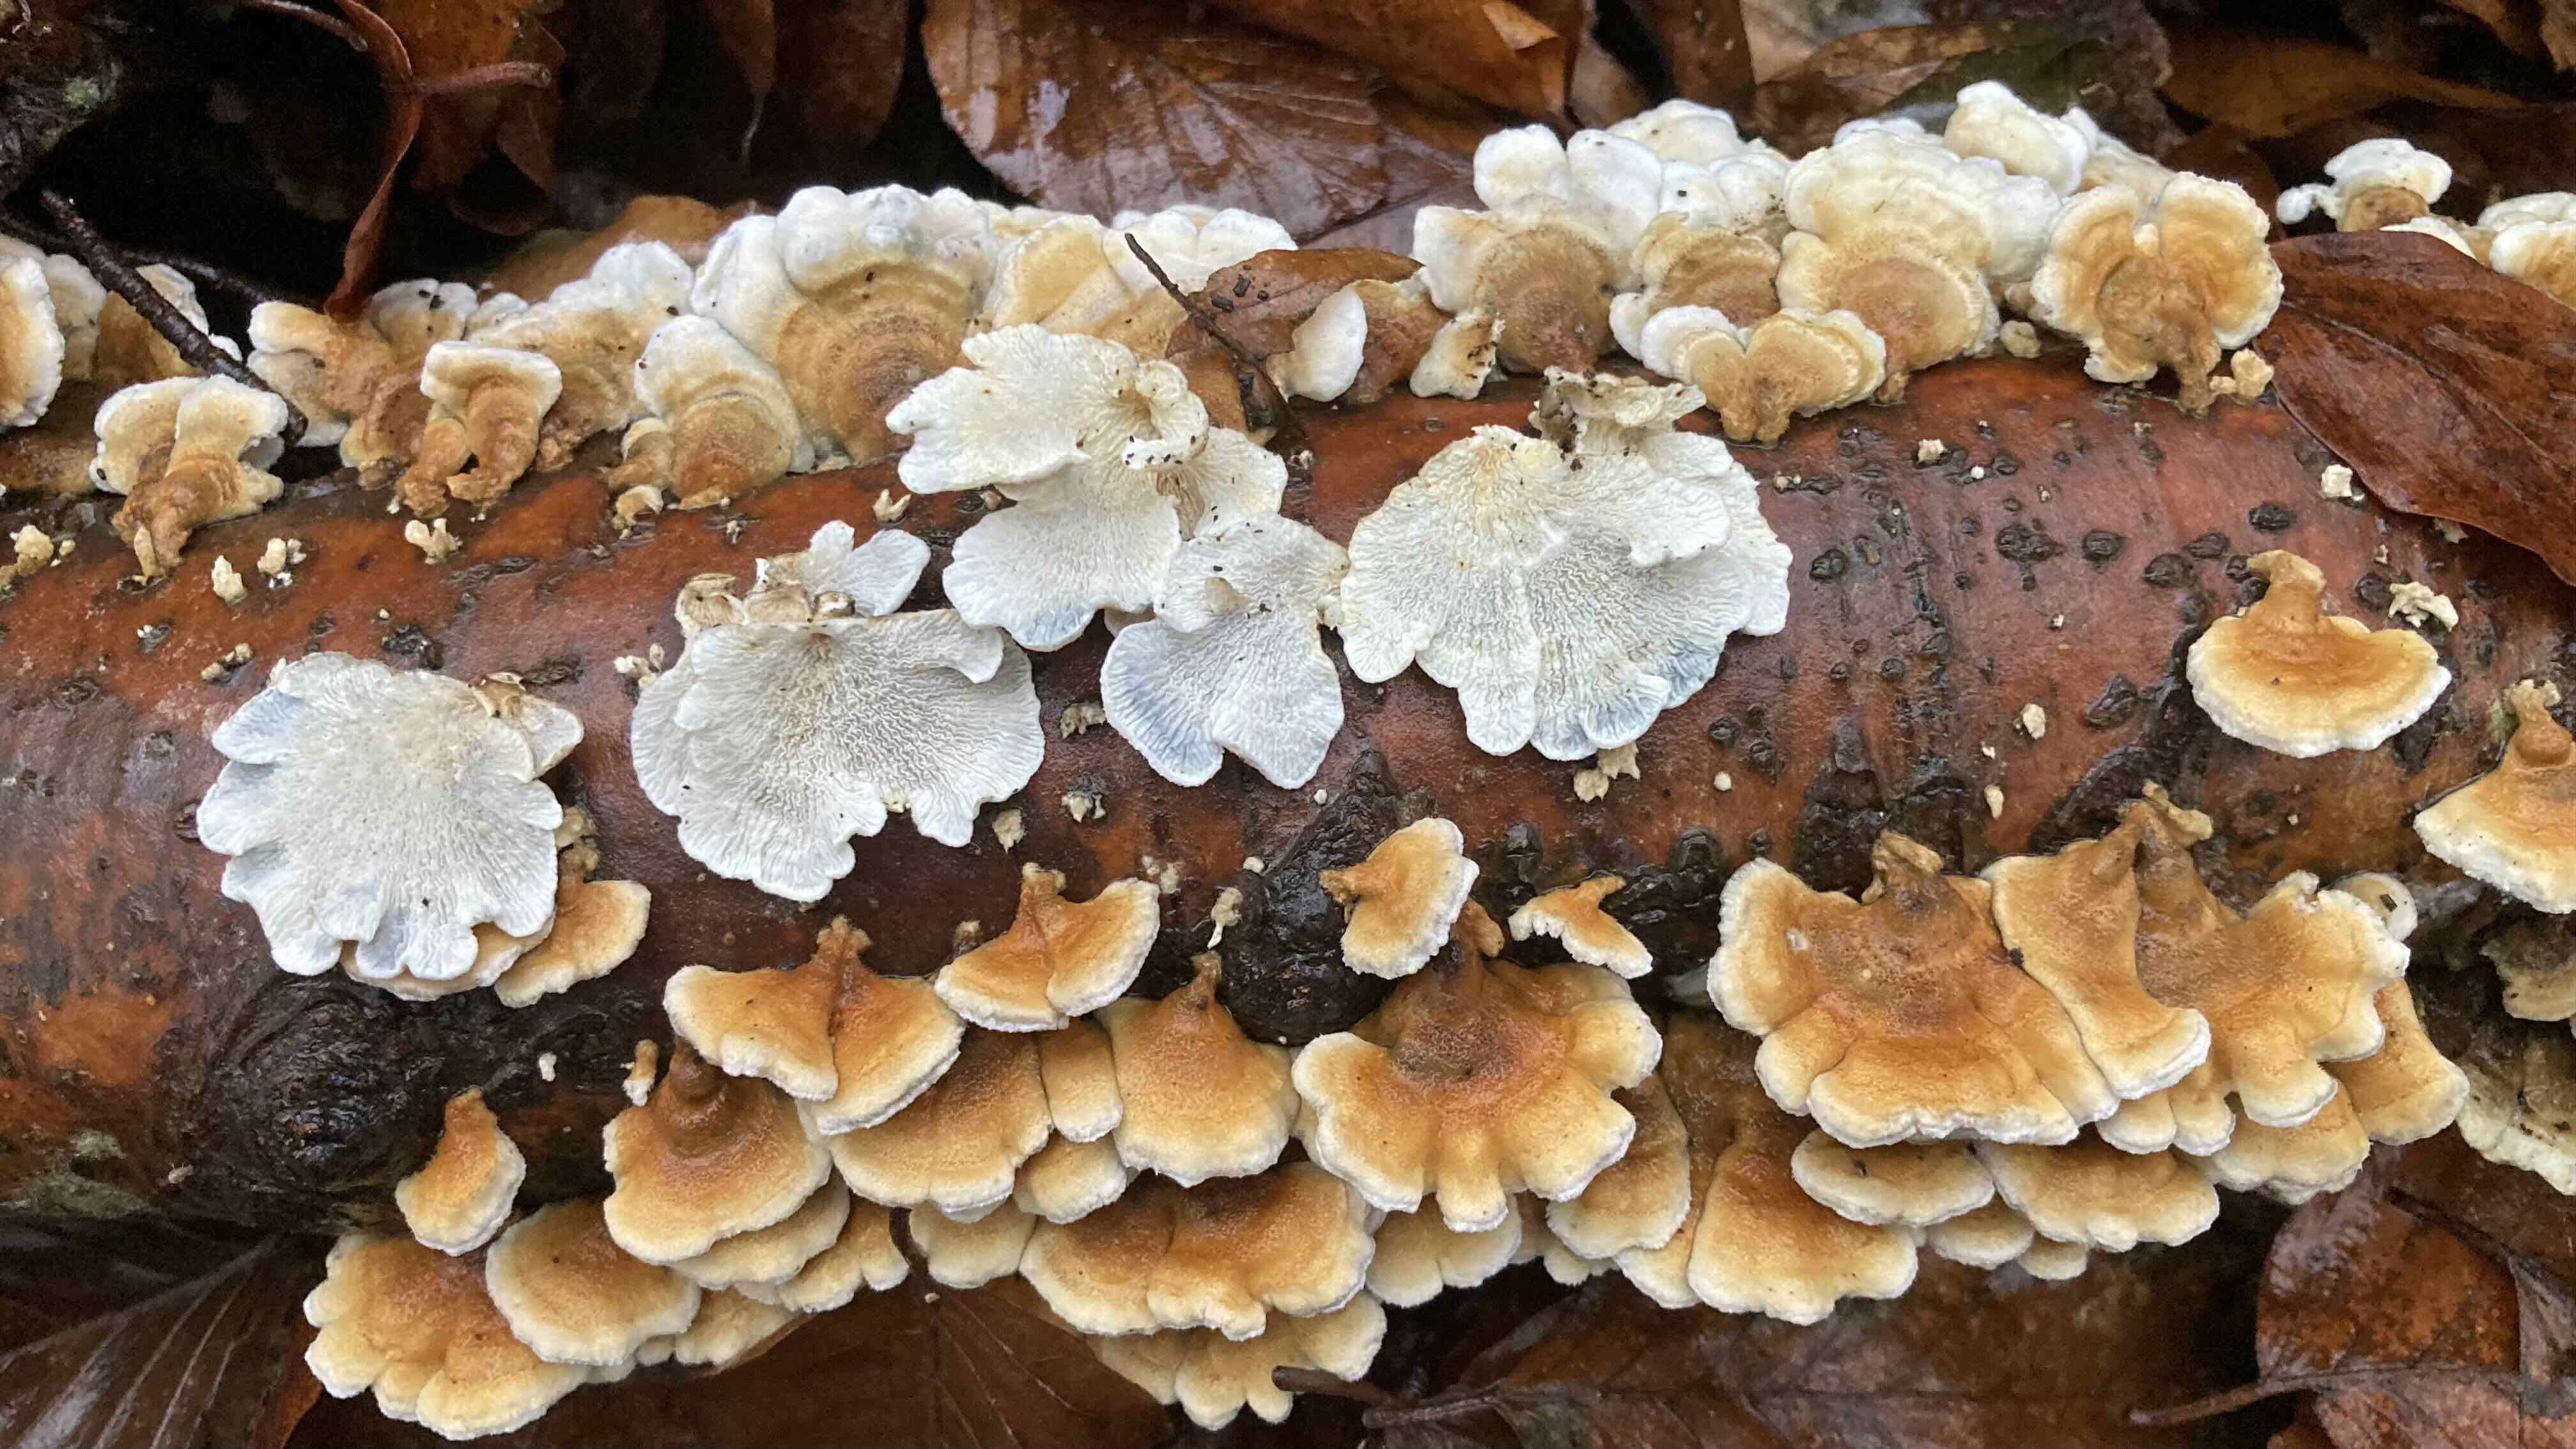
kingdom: Fungi
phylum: Basidiomycota
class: Agaricomycetes
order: Amylocorticiales
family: Amylocorticiaceae
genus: Plicaturopsis
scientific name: Plicaturopsis crispa
